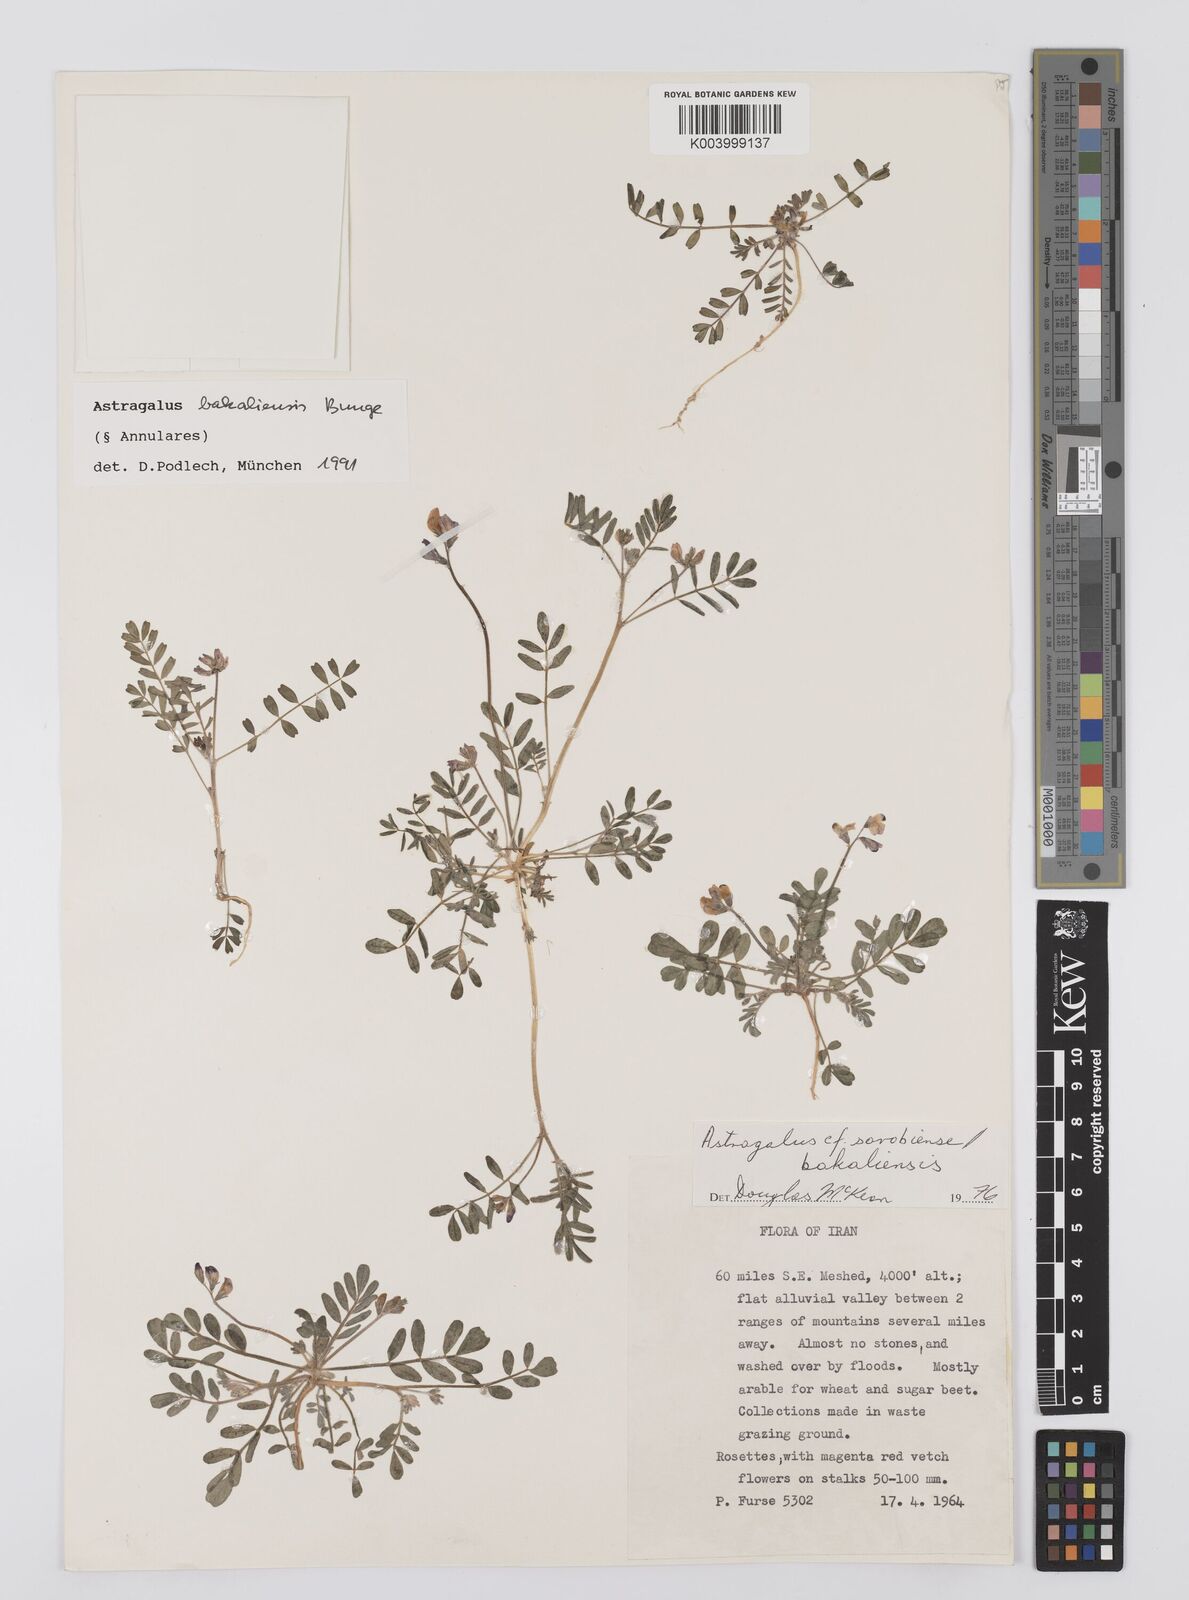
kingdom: Plantae
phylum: Tracheophyta
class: Magnoliopsida
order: Fabales
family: Fabaceae
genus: Astragalus
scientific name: Astragalus bakaliensis
